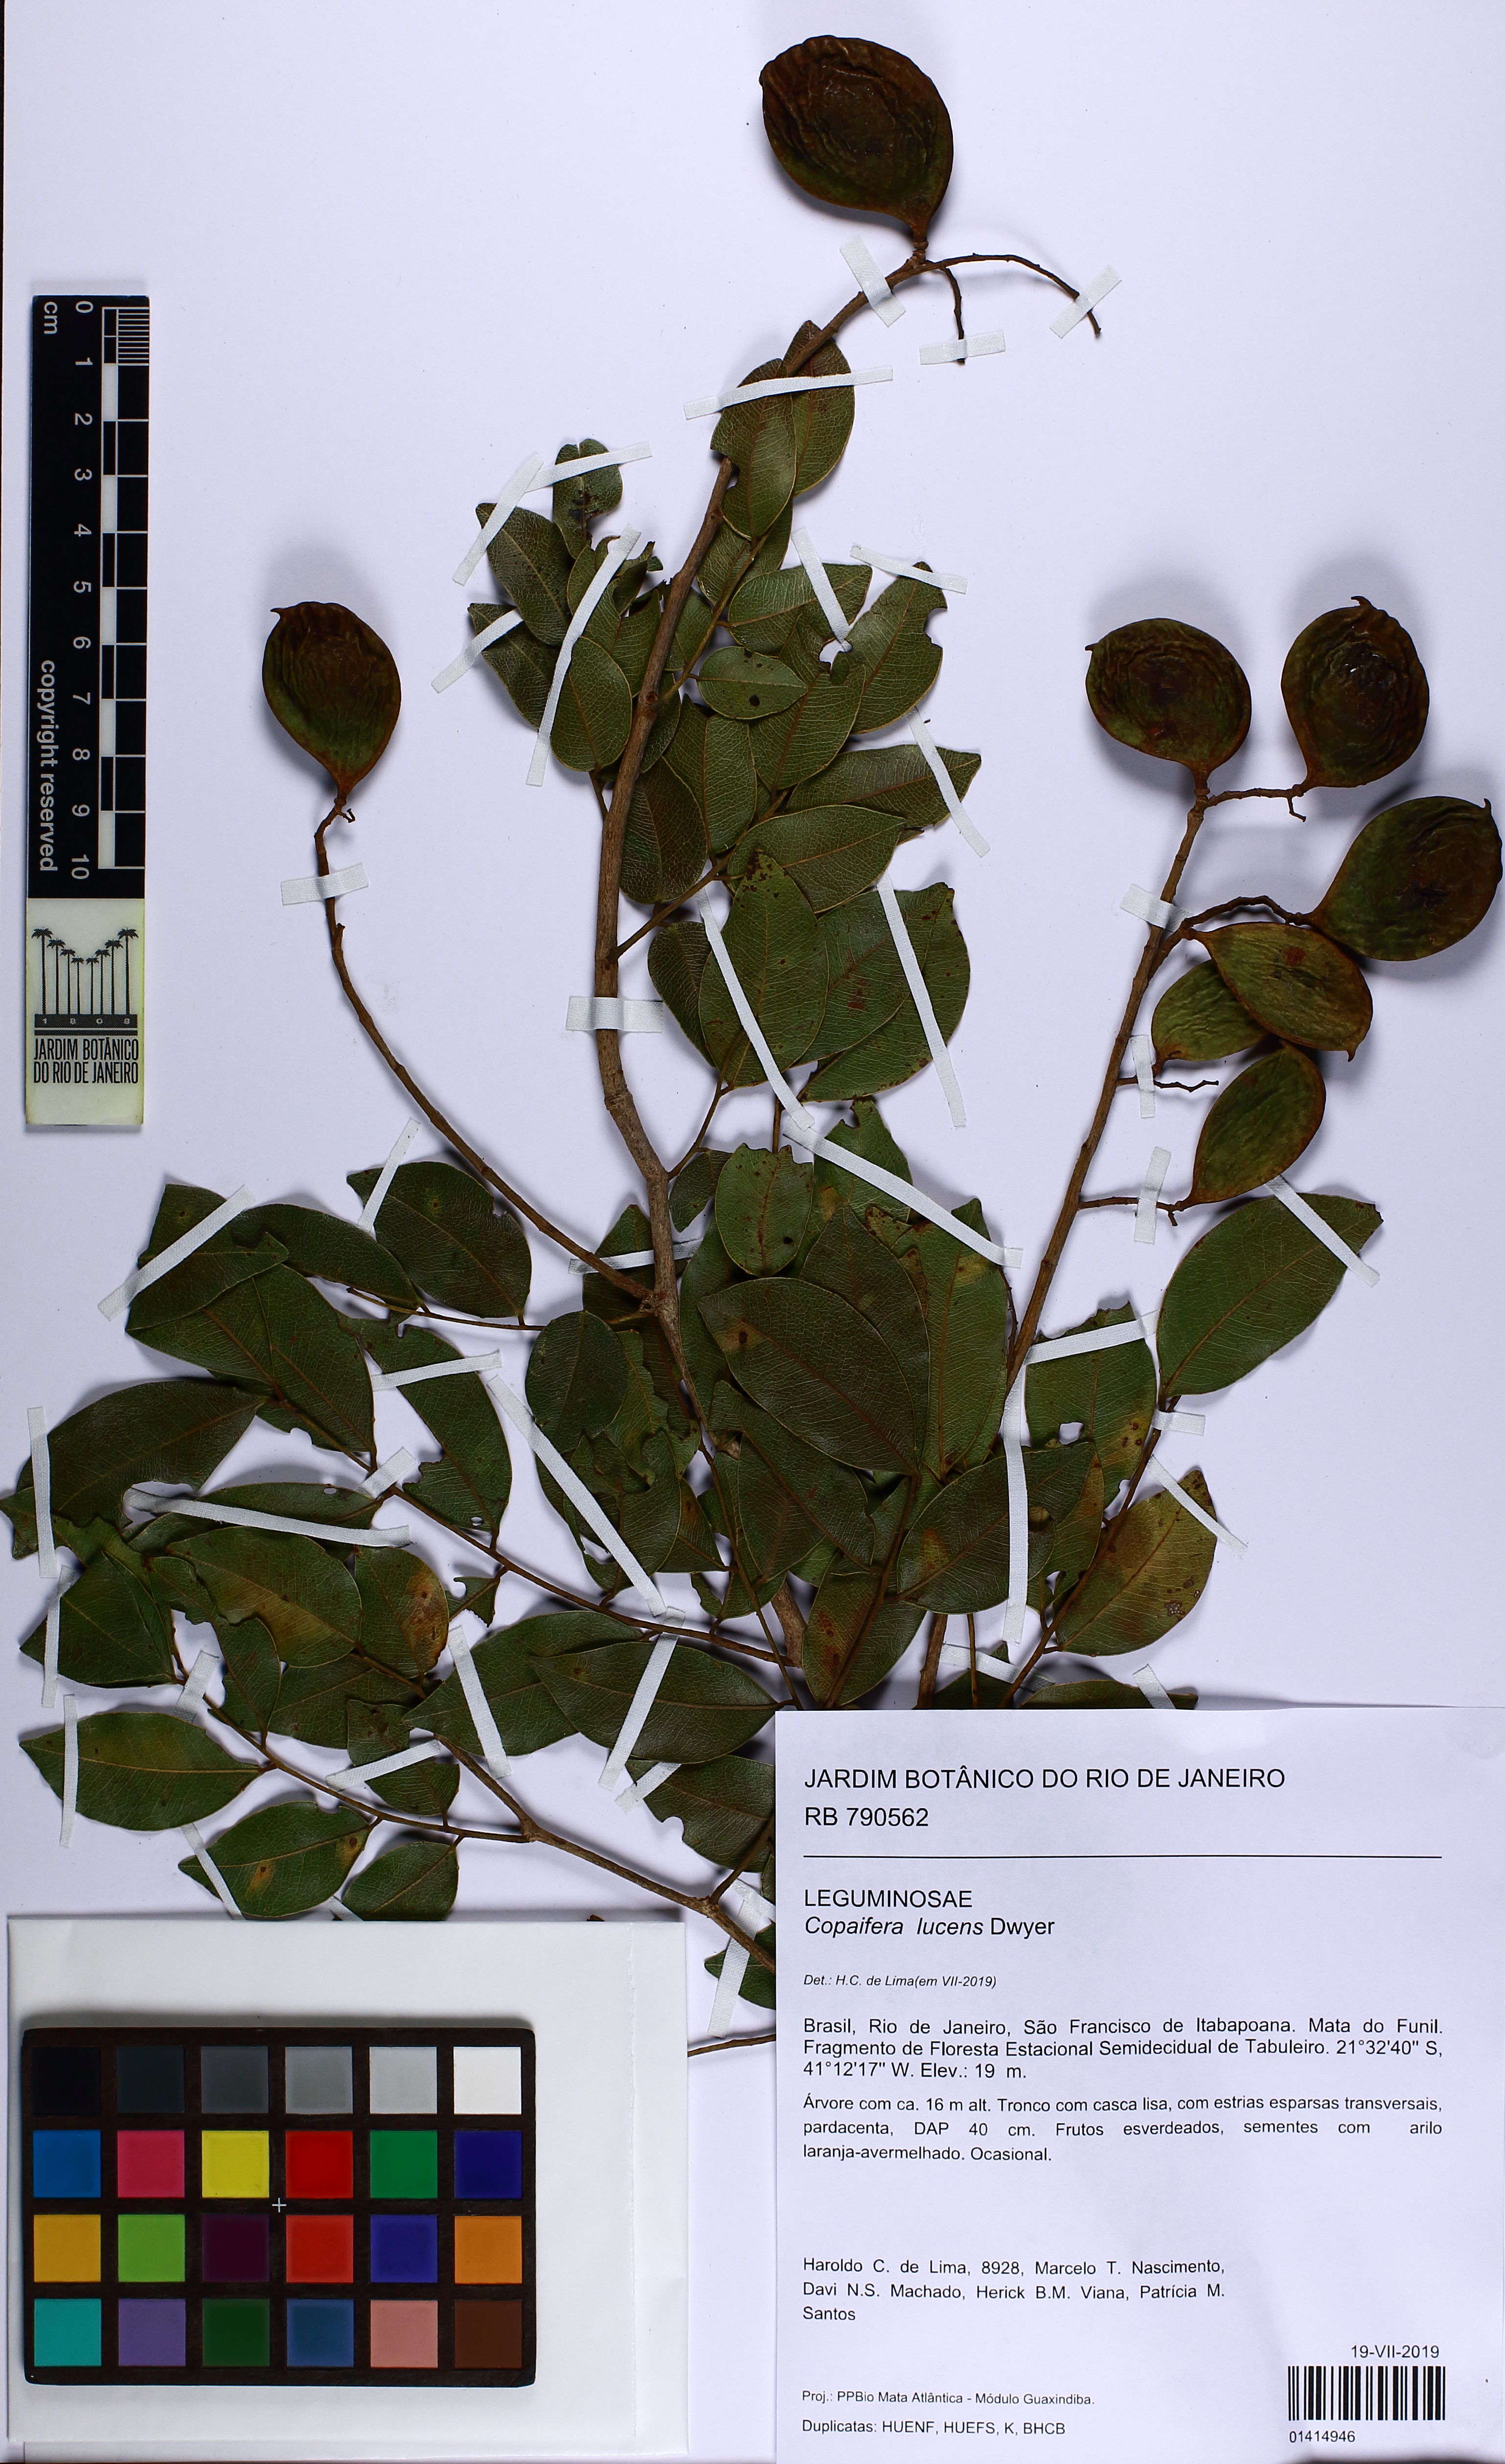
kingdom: Plantae
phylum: Tracheophyta
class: Magnoliopsida
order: Fabales
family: Fabaceae
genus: Copaifera
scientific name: Copaifera lucens
